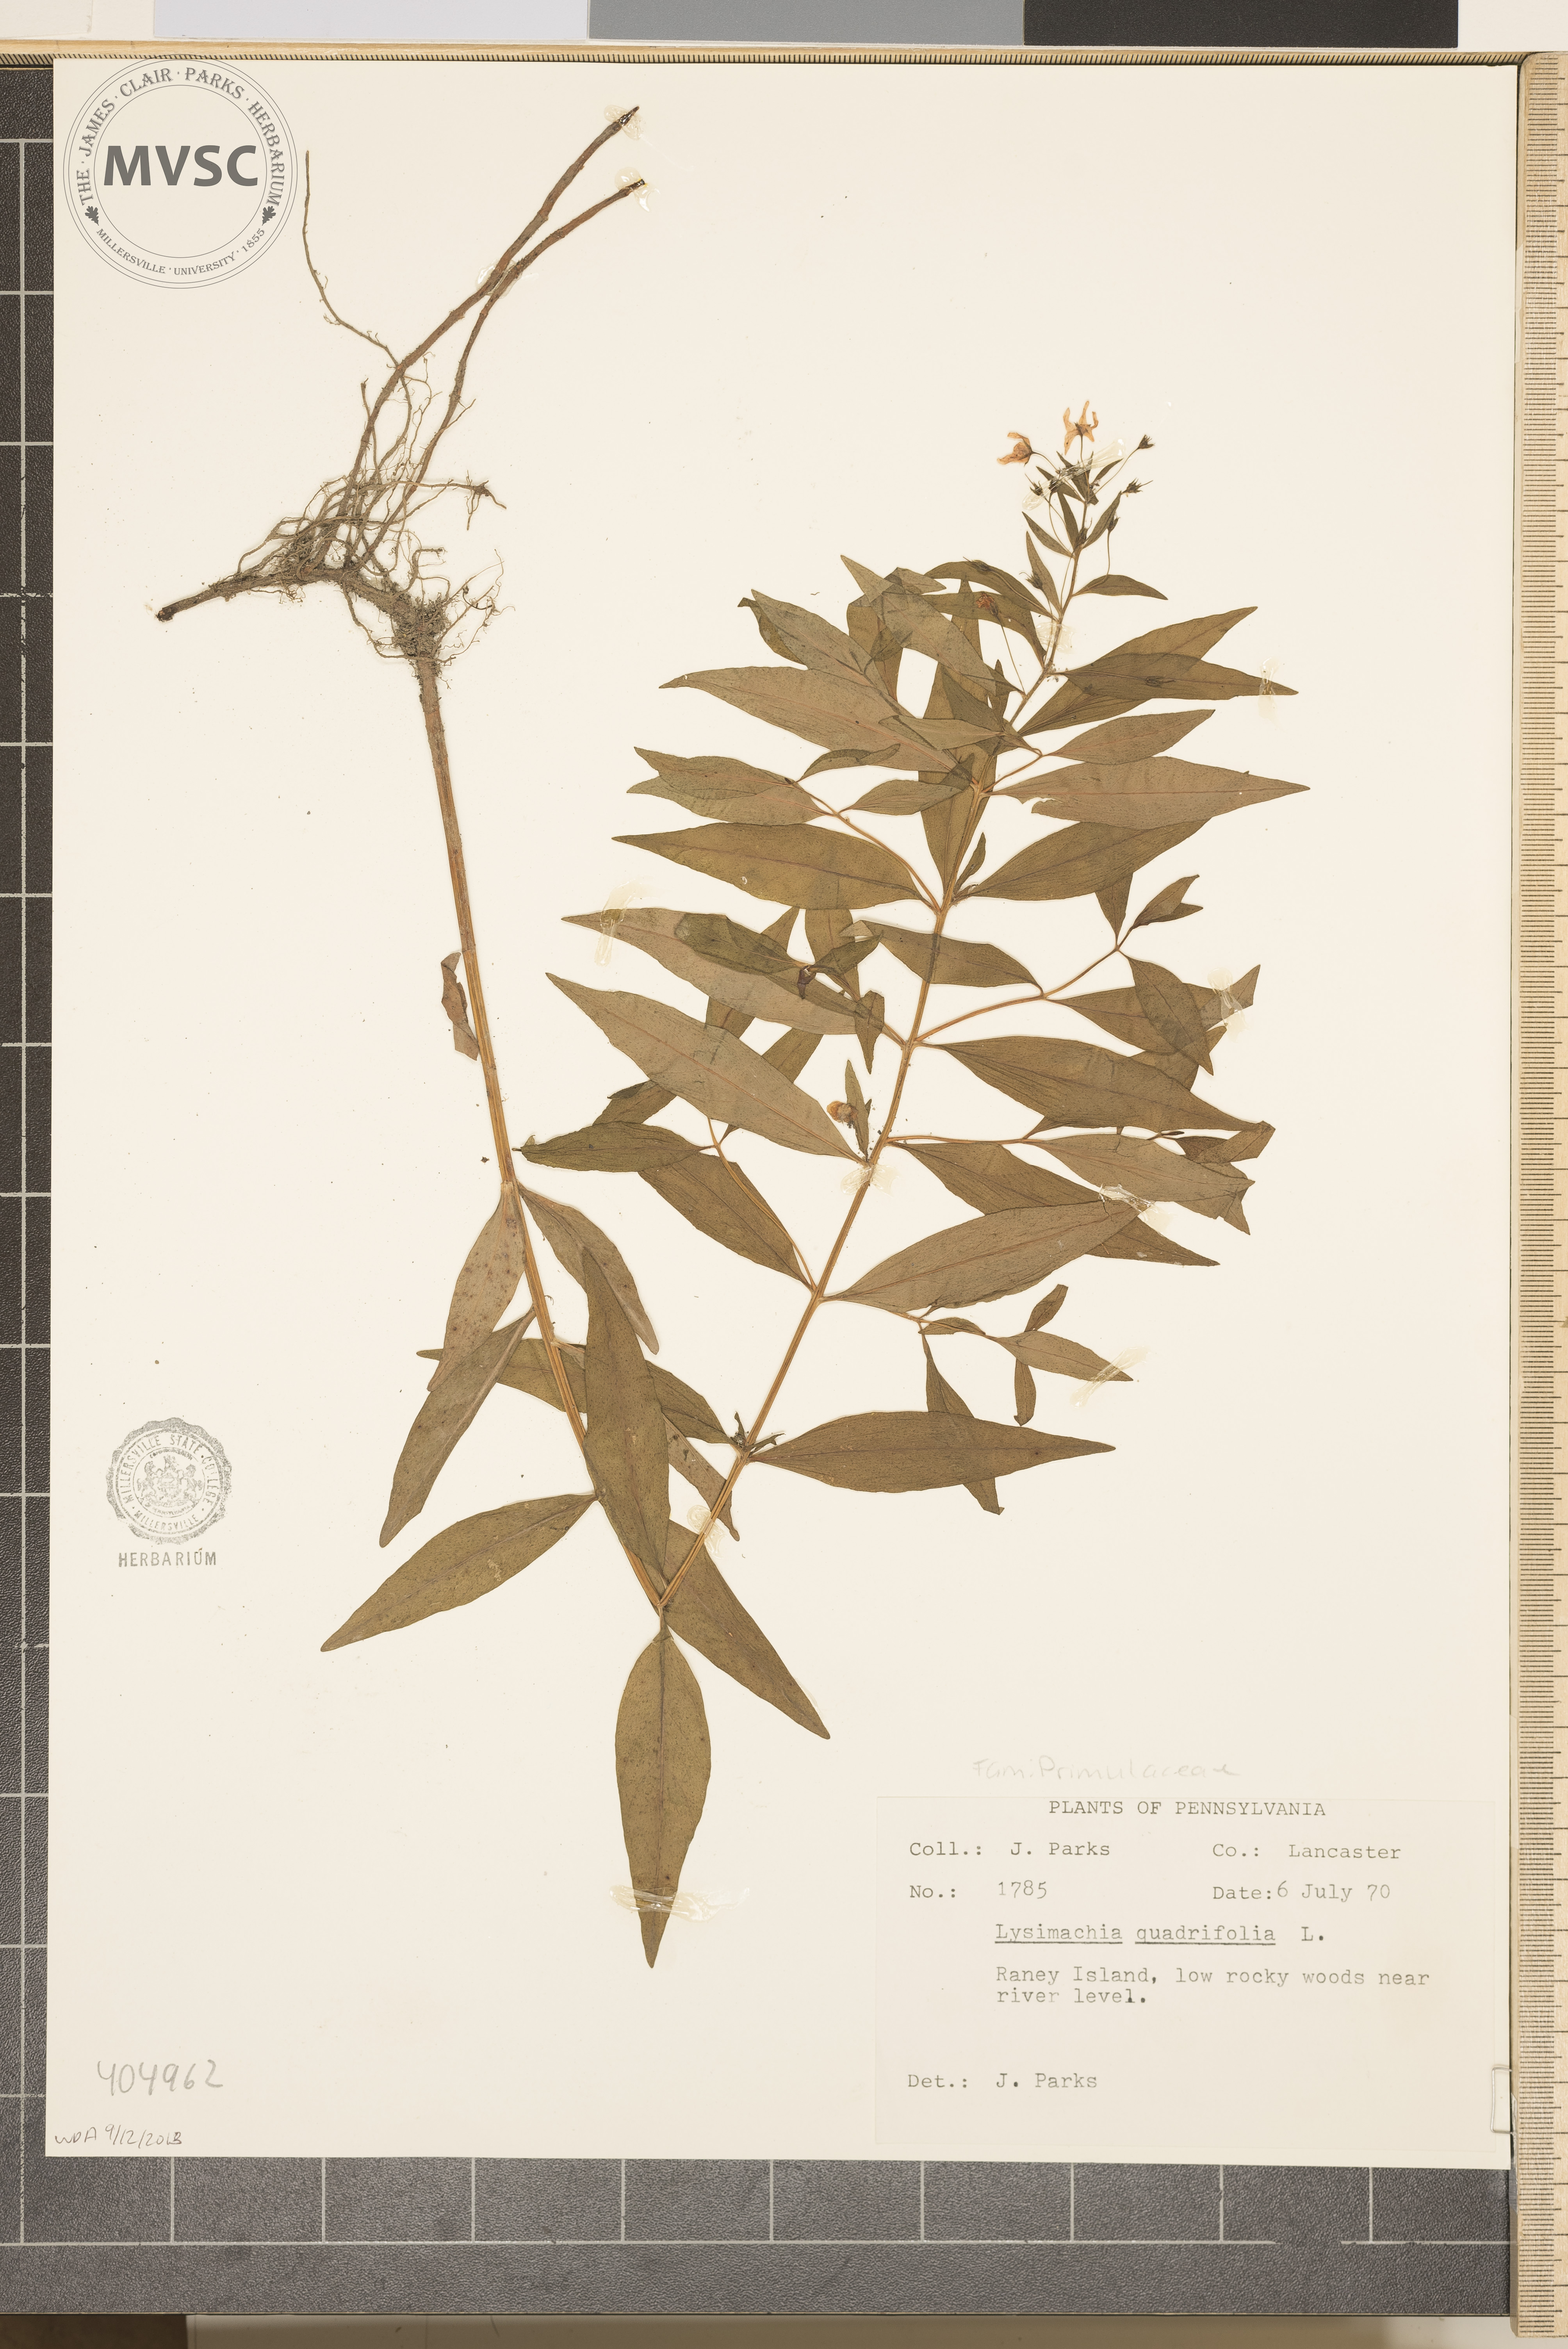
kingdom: Plantae
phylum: Tracheophyta
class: Magnoliopsida
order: Ericales
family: Primulaceae
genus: Lysimachia
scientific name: Lysimachia quadrifolia
